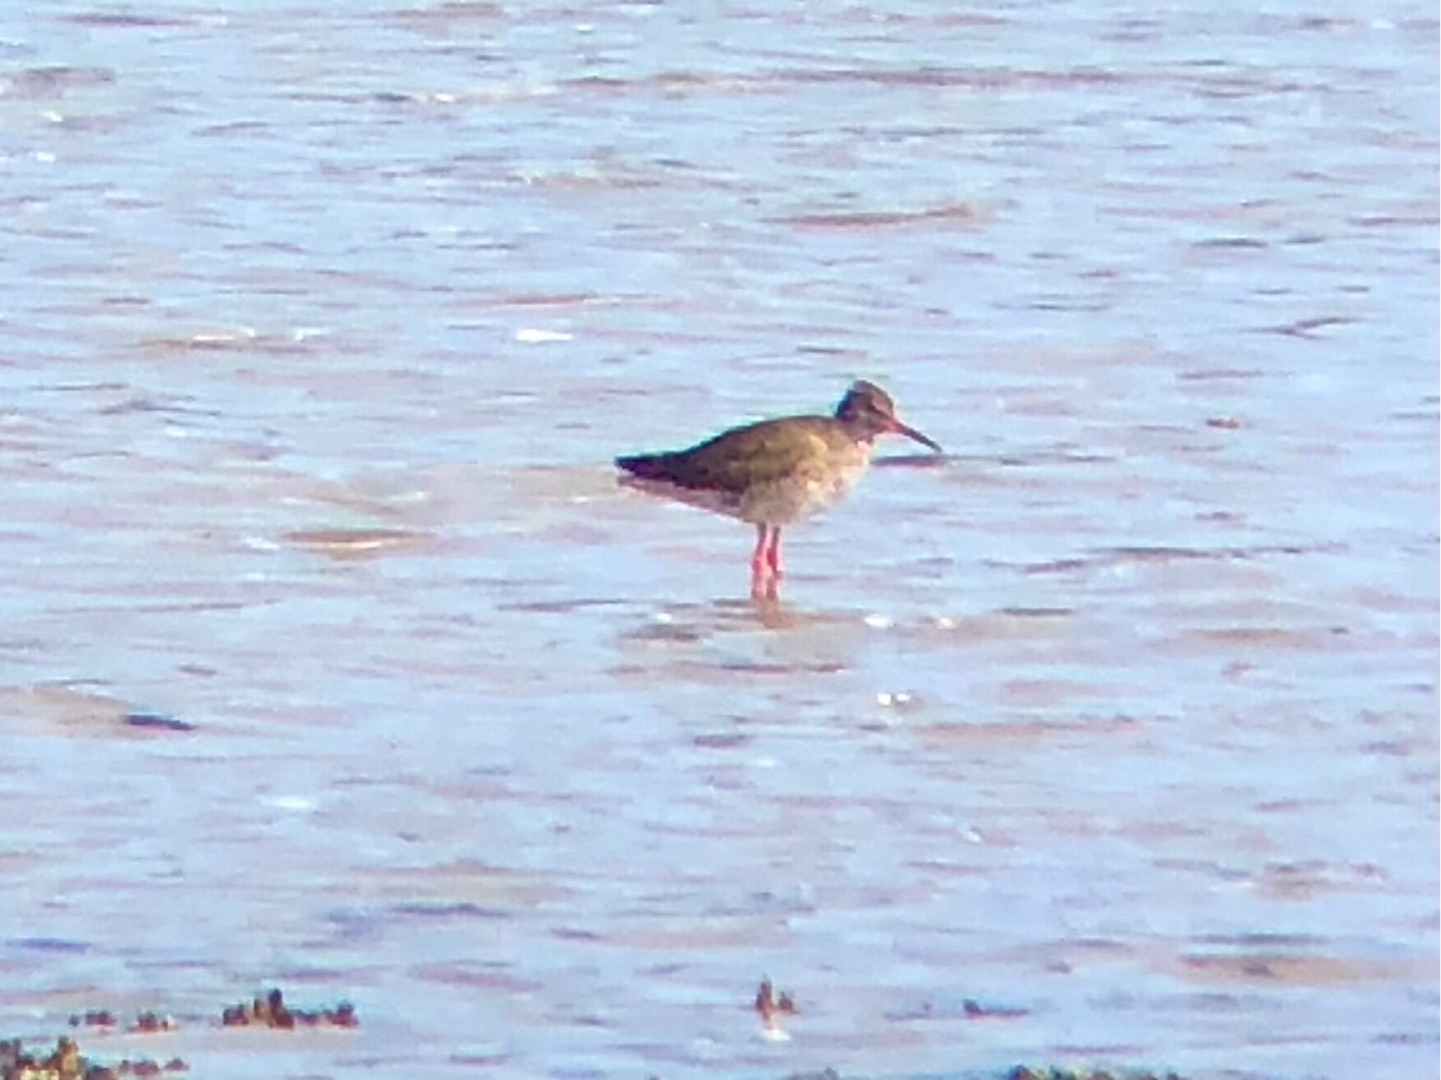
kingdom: Animalia
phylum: Chordata
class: Aves
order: Charadriiformes
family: Scolopacidae
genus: Tringa
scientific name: Tringa totanus
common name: Rødben
